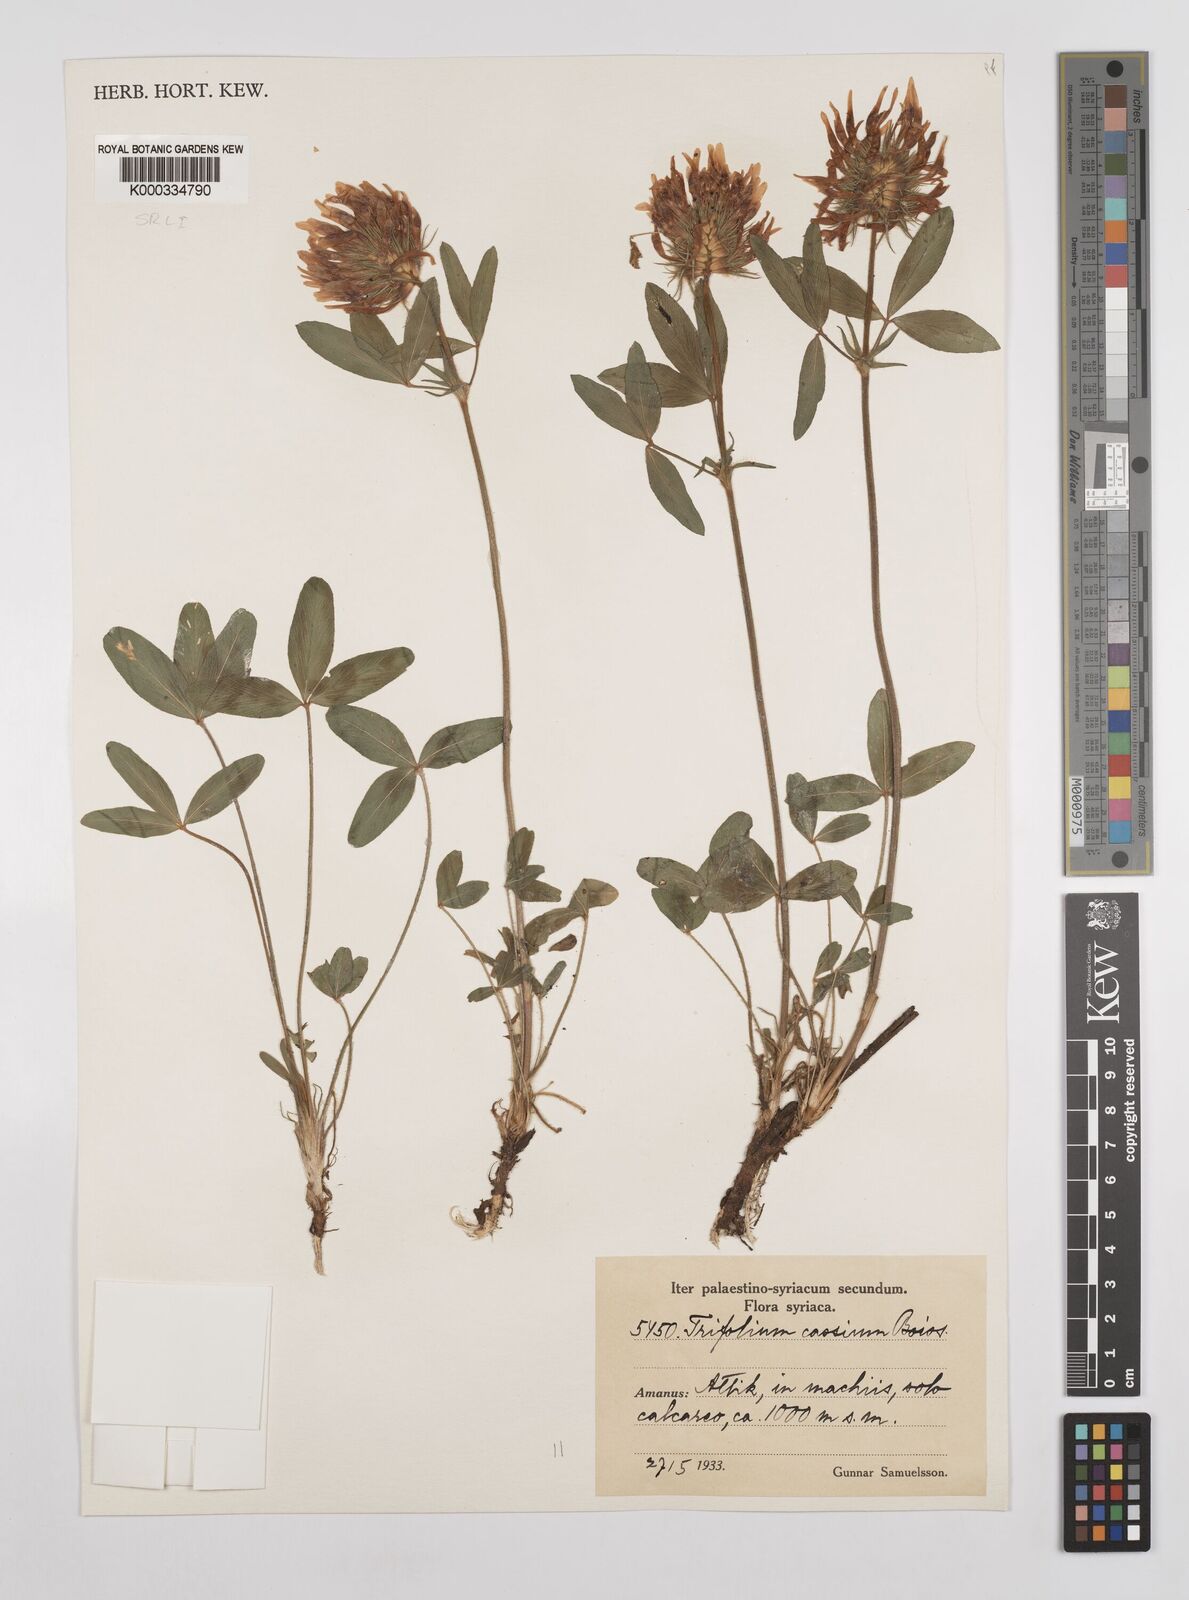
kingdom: Plantae
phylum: Tracheophyta
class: Magnoliopsida
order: Fabales
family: Fabaceae
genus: Trifolium
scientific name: Trifolium ochroleucon
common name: Sulphur clover
